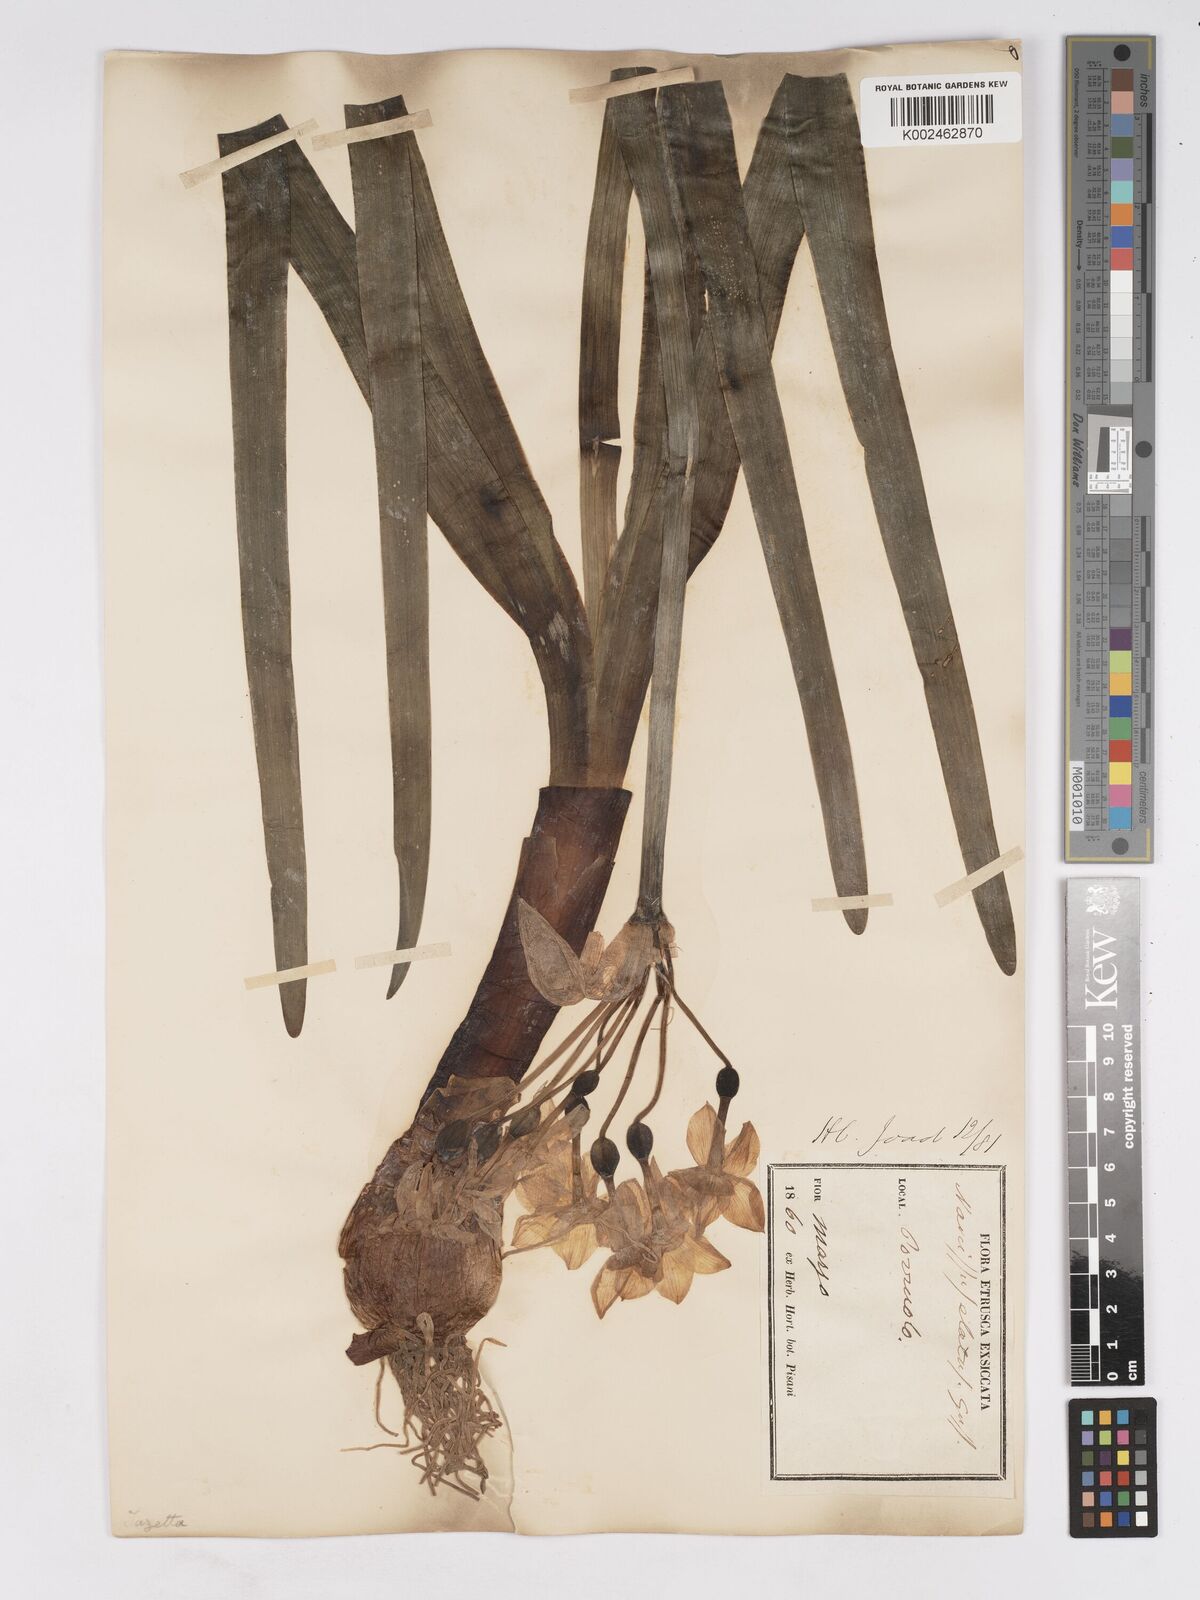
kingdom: Plantae
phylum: Tracheophyta
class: Liliopsida
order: Asparagales
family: Amaryllidaceae
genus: Narcissus
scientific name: Narcissus tazetta
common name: Bunch-flowered daffodil
